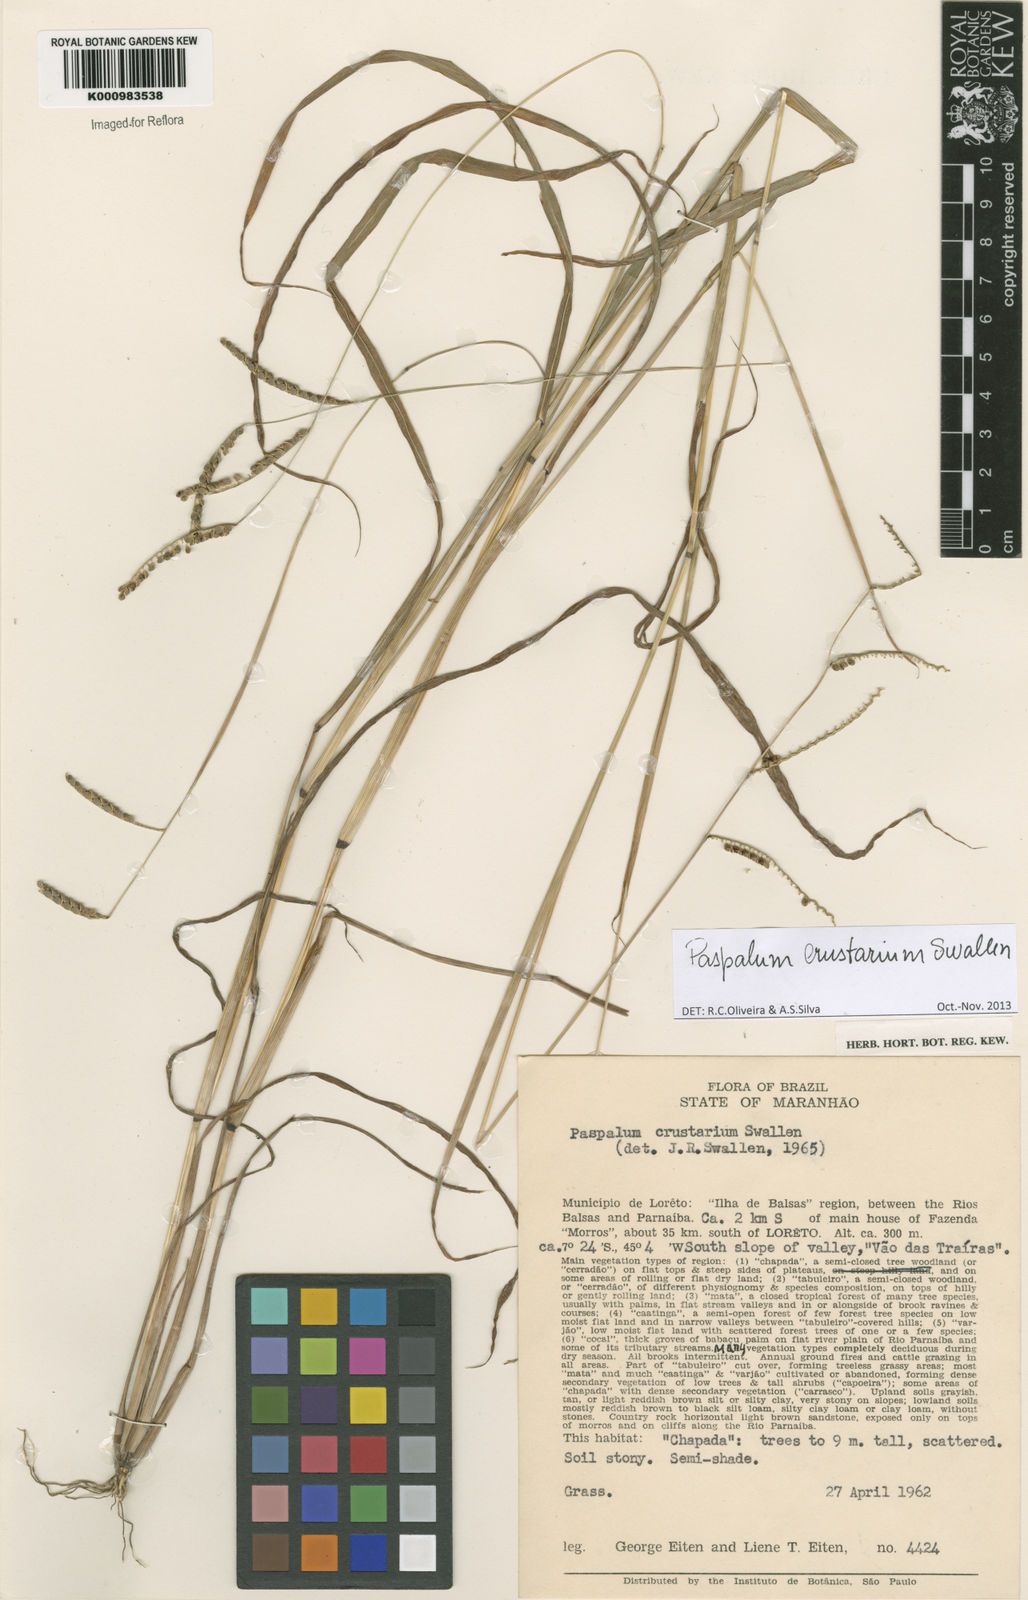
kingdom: Plantae
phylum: Tracheophyta
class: Liliopsida
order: Poales
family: Poaceae
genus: Paspalum
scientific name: Paspalum crustarium
